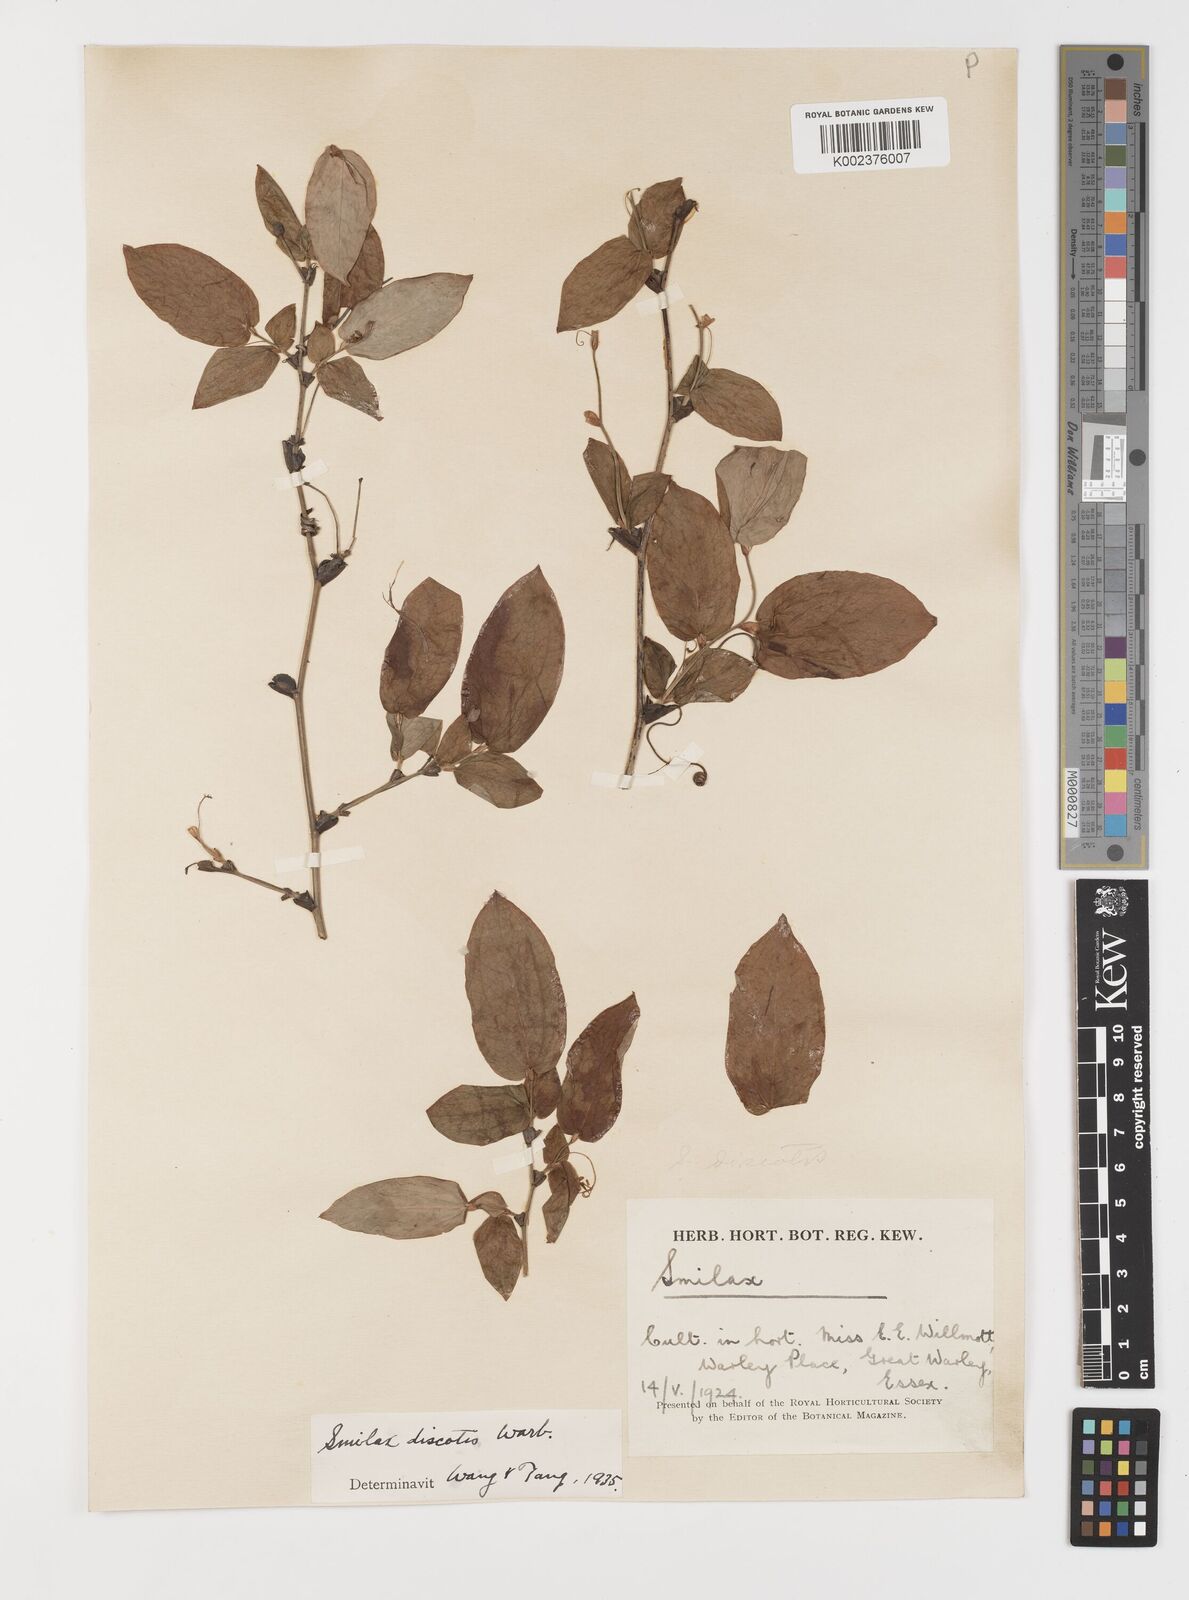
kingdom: Plantae
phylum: Tracheophyta
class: Liliopsida
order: Liliales
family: Smilacaceae
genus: Smilax
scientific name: Smilax discotis
